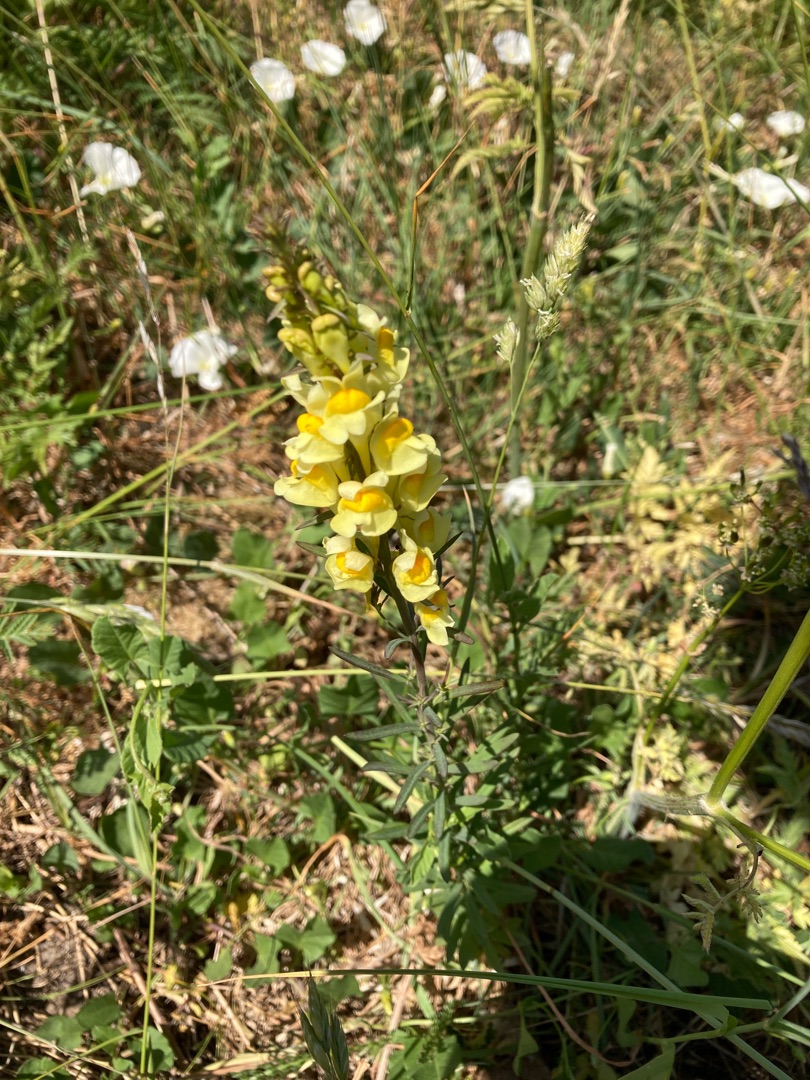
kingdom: Plantae
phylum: Tracheophyta
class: Magnoliopsida
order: Lamiales
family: Plantaginaceae
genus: Linaria
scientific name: Linaria vulgaris
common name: Almindelig torskemund
